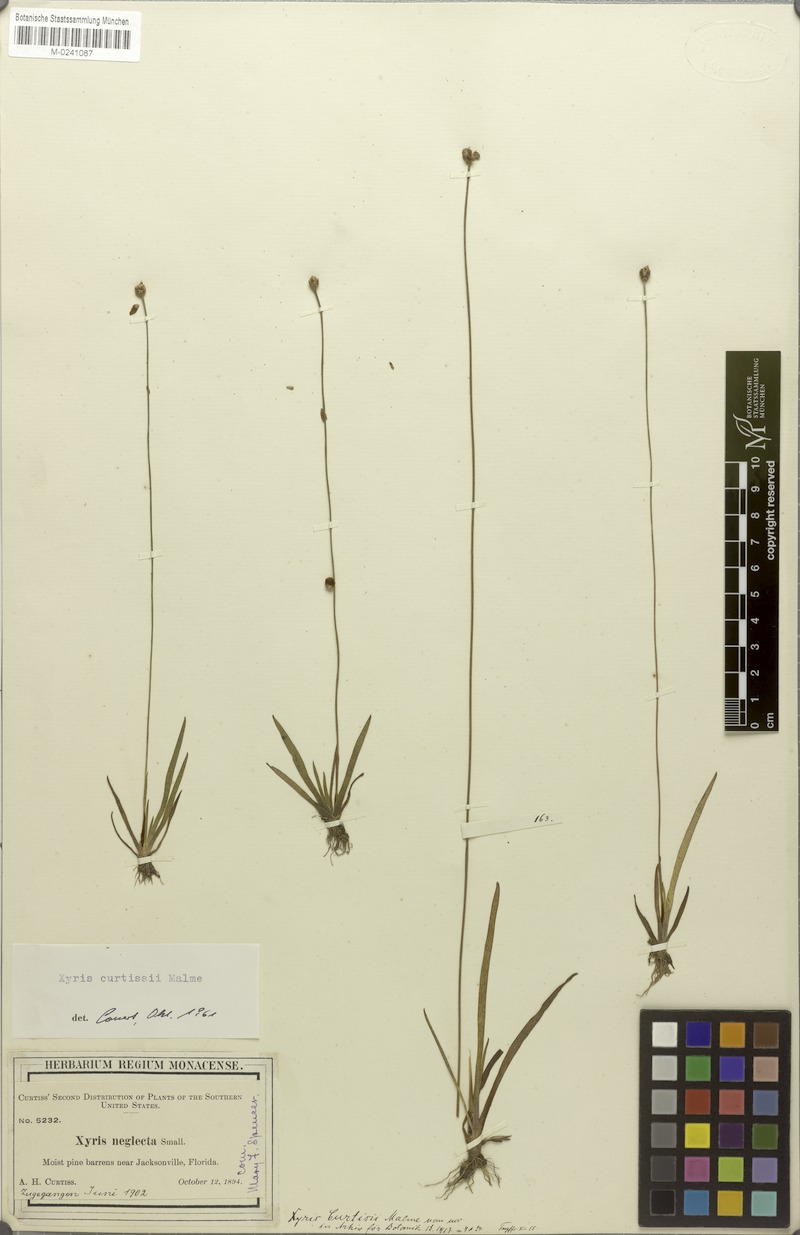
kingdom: Plantae
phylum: Tracheophyta
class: Liliopsida
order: Poales
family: Xyridaceae
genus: Xyris
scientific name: Xyris difformis
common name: Bog yellow-eyed-grass
